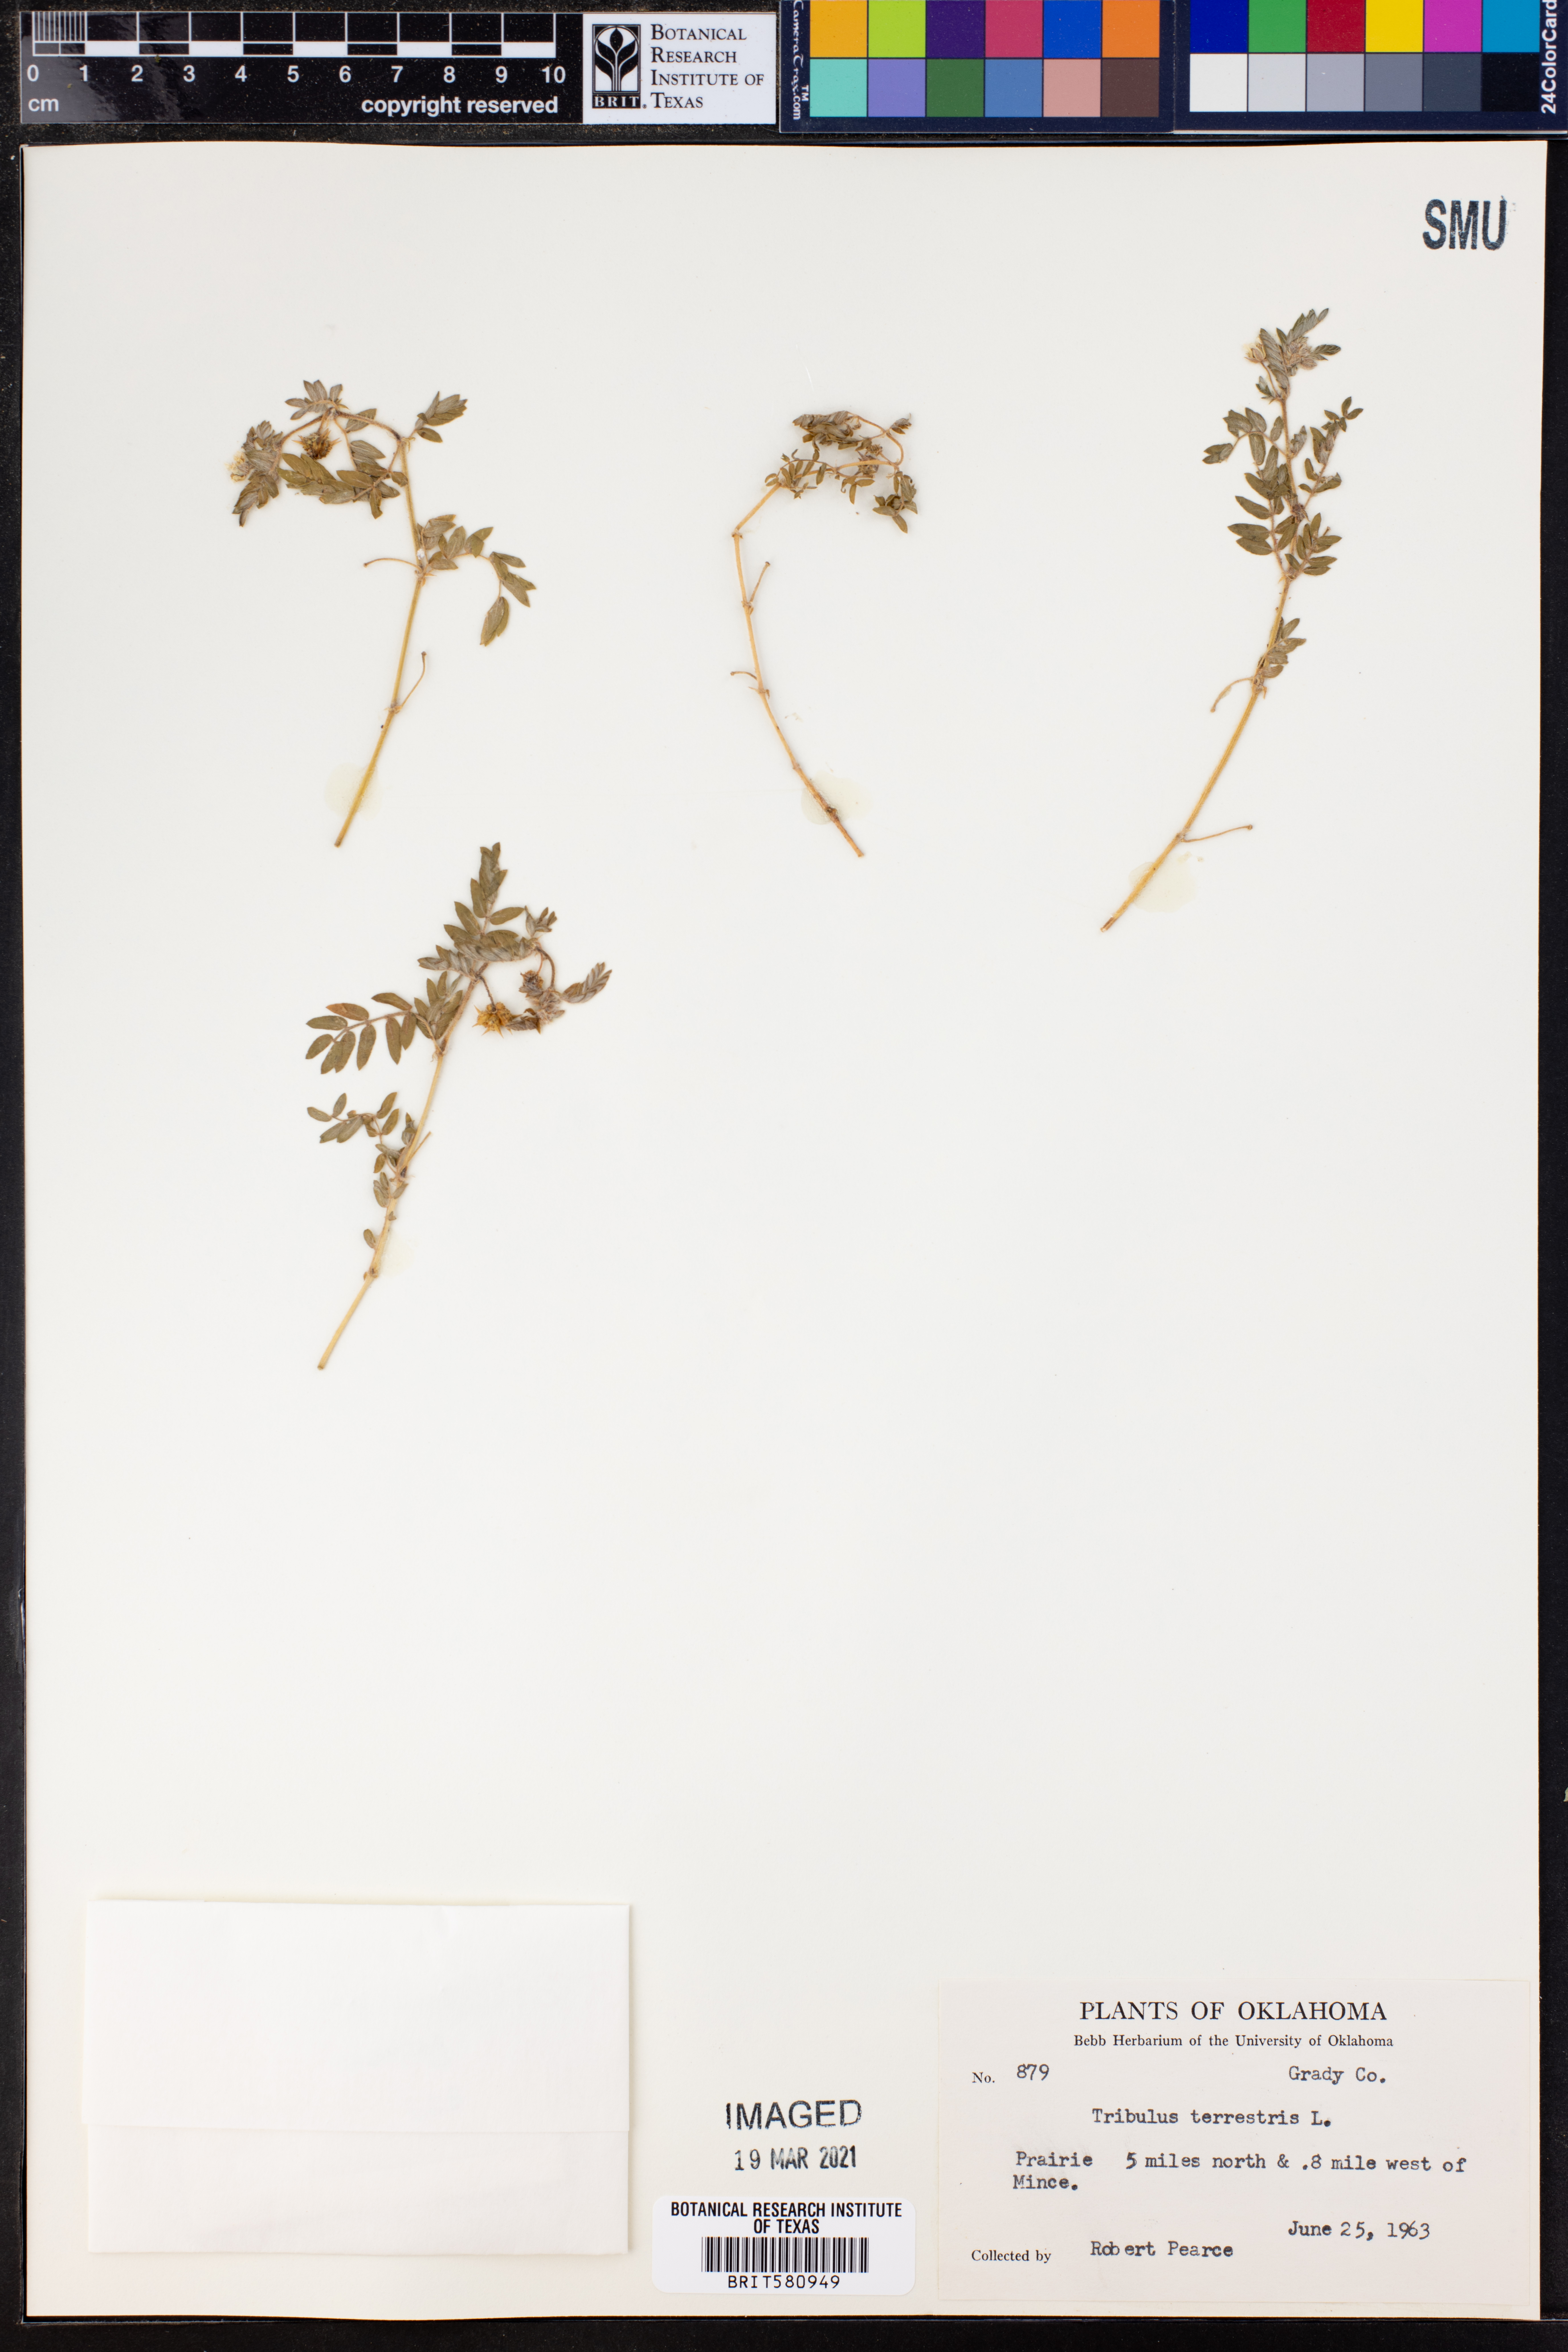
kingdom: Plantae
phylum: Tracheophyta
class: Magnoliopsida
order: Zygophyllales
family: Zygophyllaceae
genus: Tribulus
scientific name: Tribulus terrestris
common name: Puncturevine
